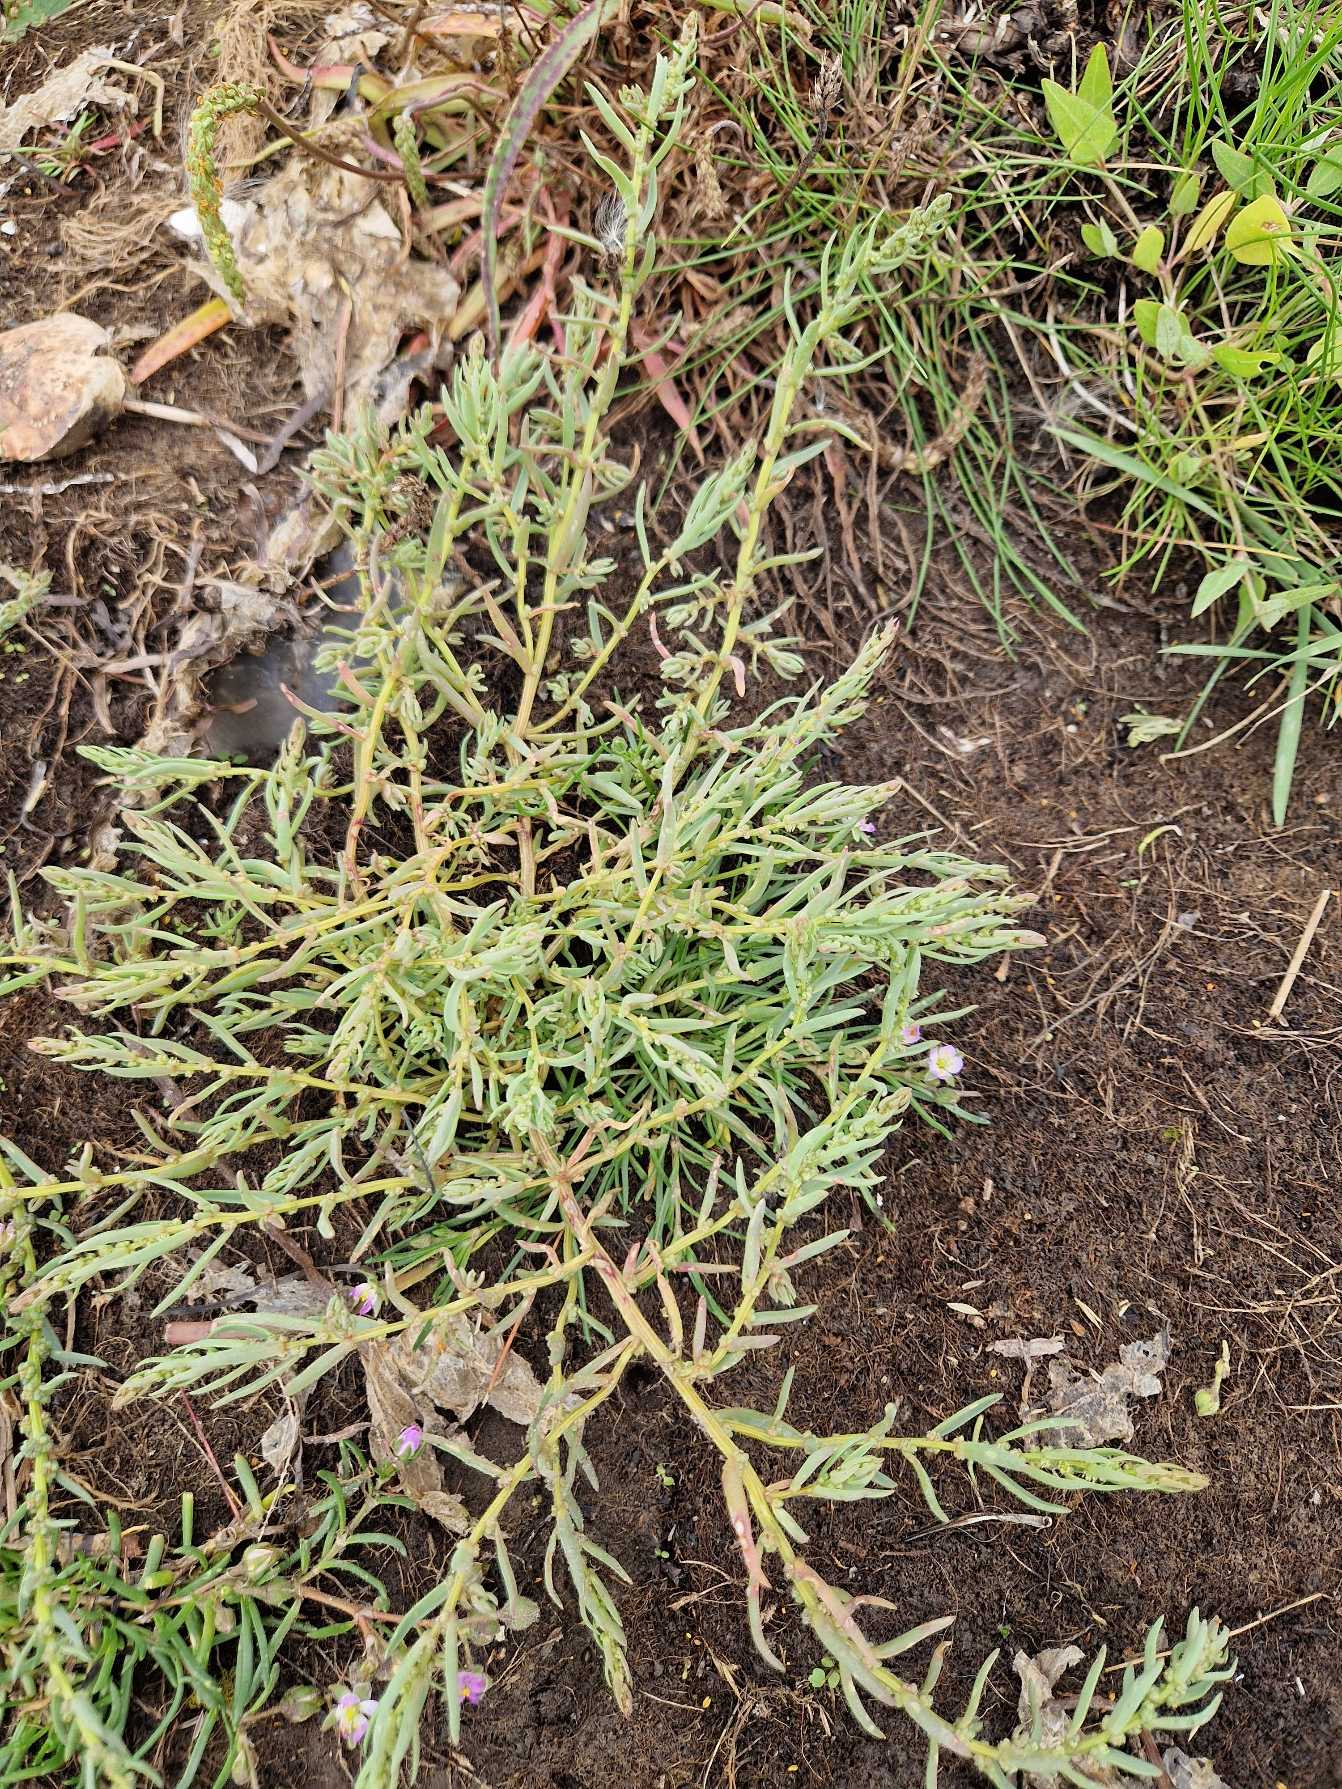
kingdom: Plantae
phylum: Tracheophyta
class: Magnoliopsida
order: Caryophyllales
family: Amaranthaceae
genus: Suaeda
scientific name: Suaeda maritima
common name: Strandgåsefod
